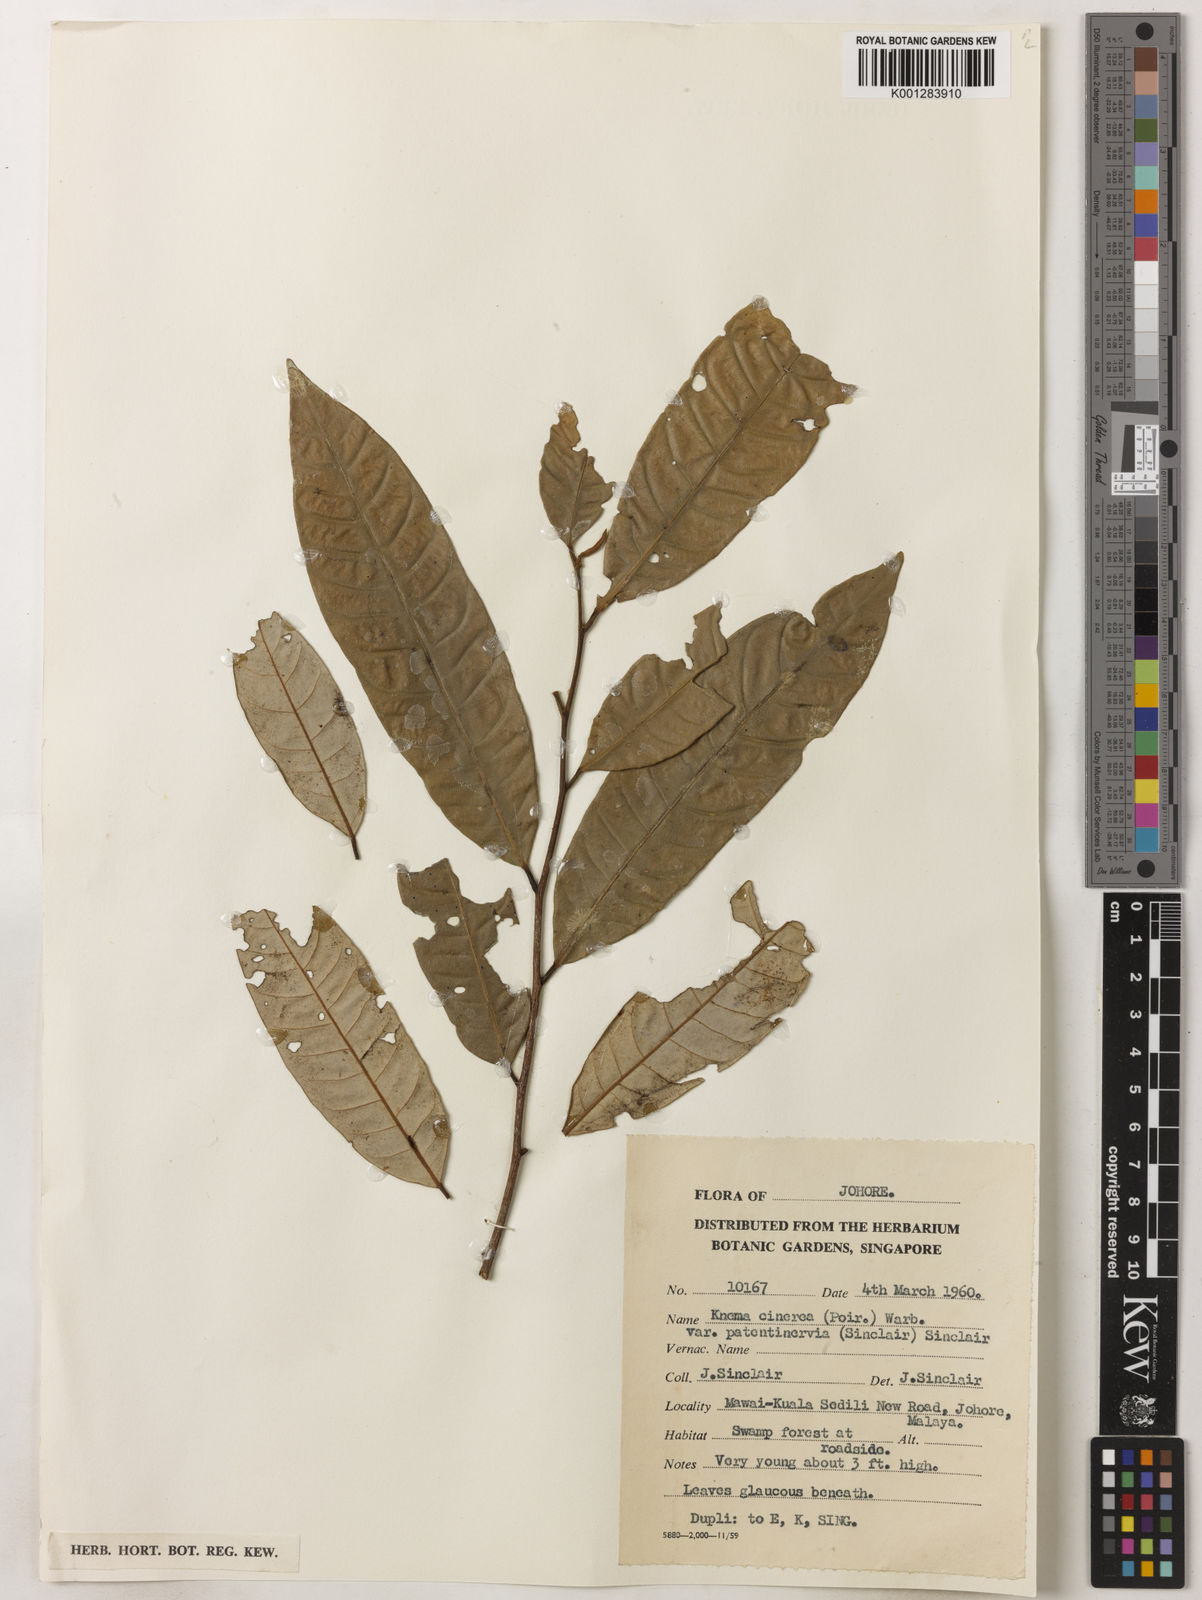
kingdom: Plantae
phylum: Tracheophyta
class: Magnoliopsida
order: Magnoliales
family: Myristicaceae
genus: Knema
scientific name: Knema
